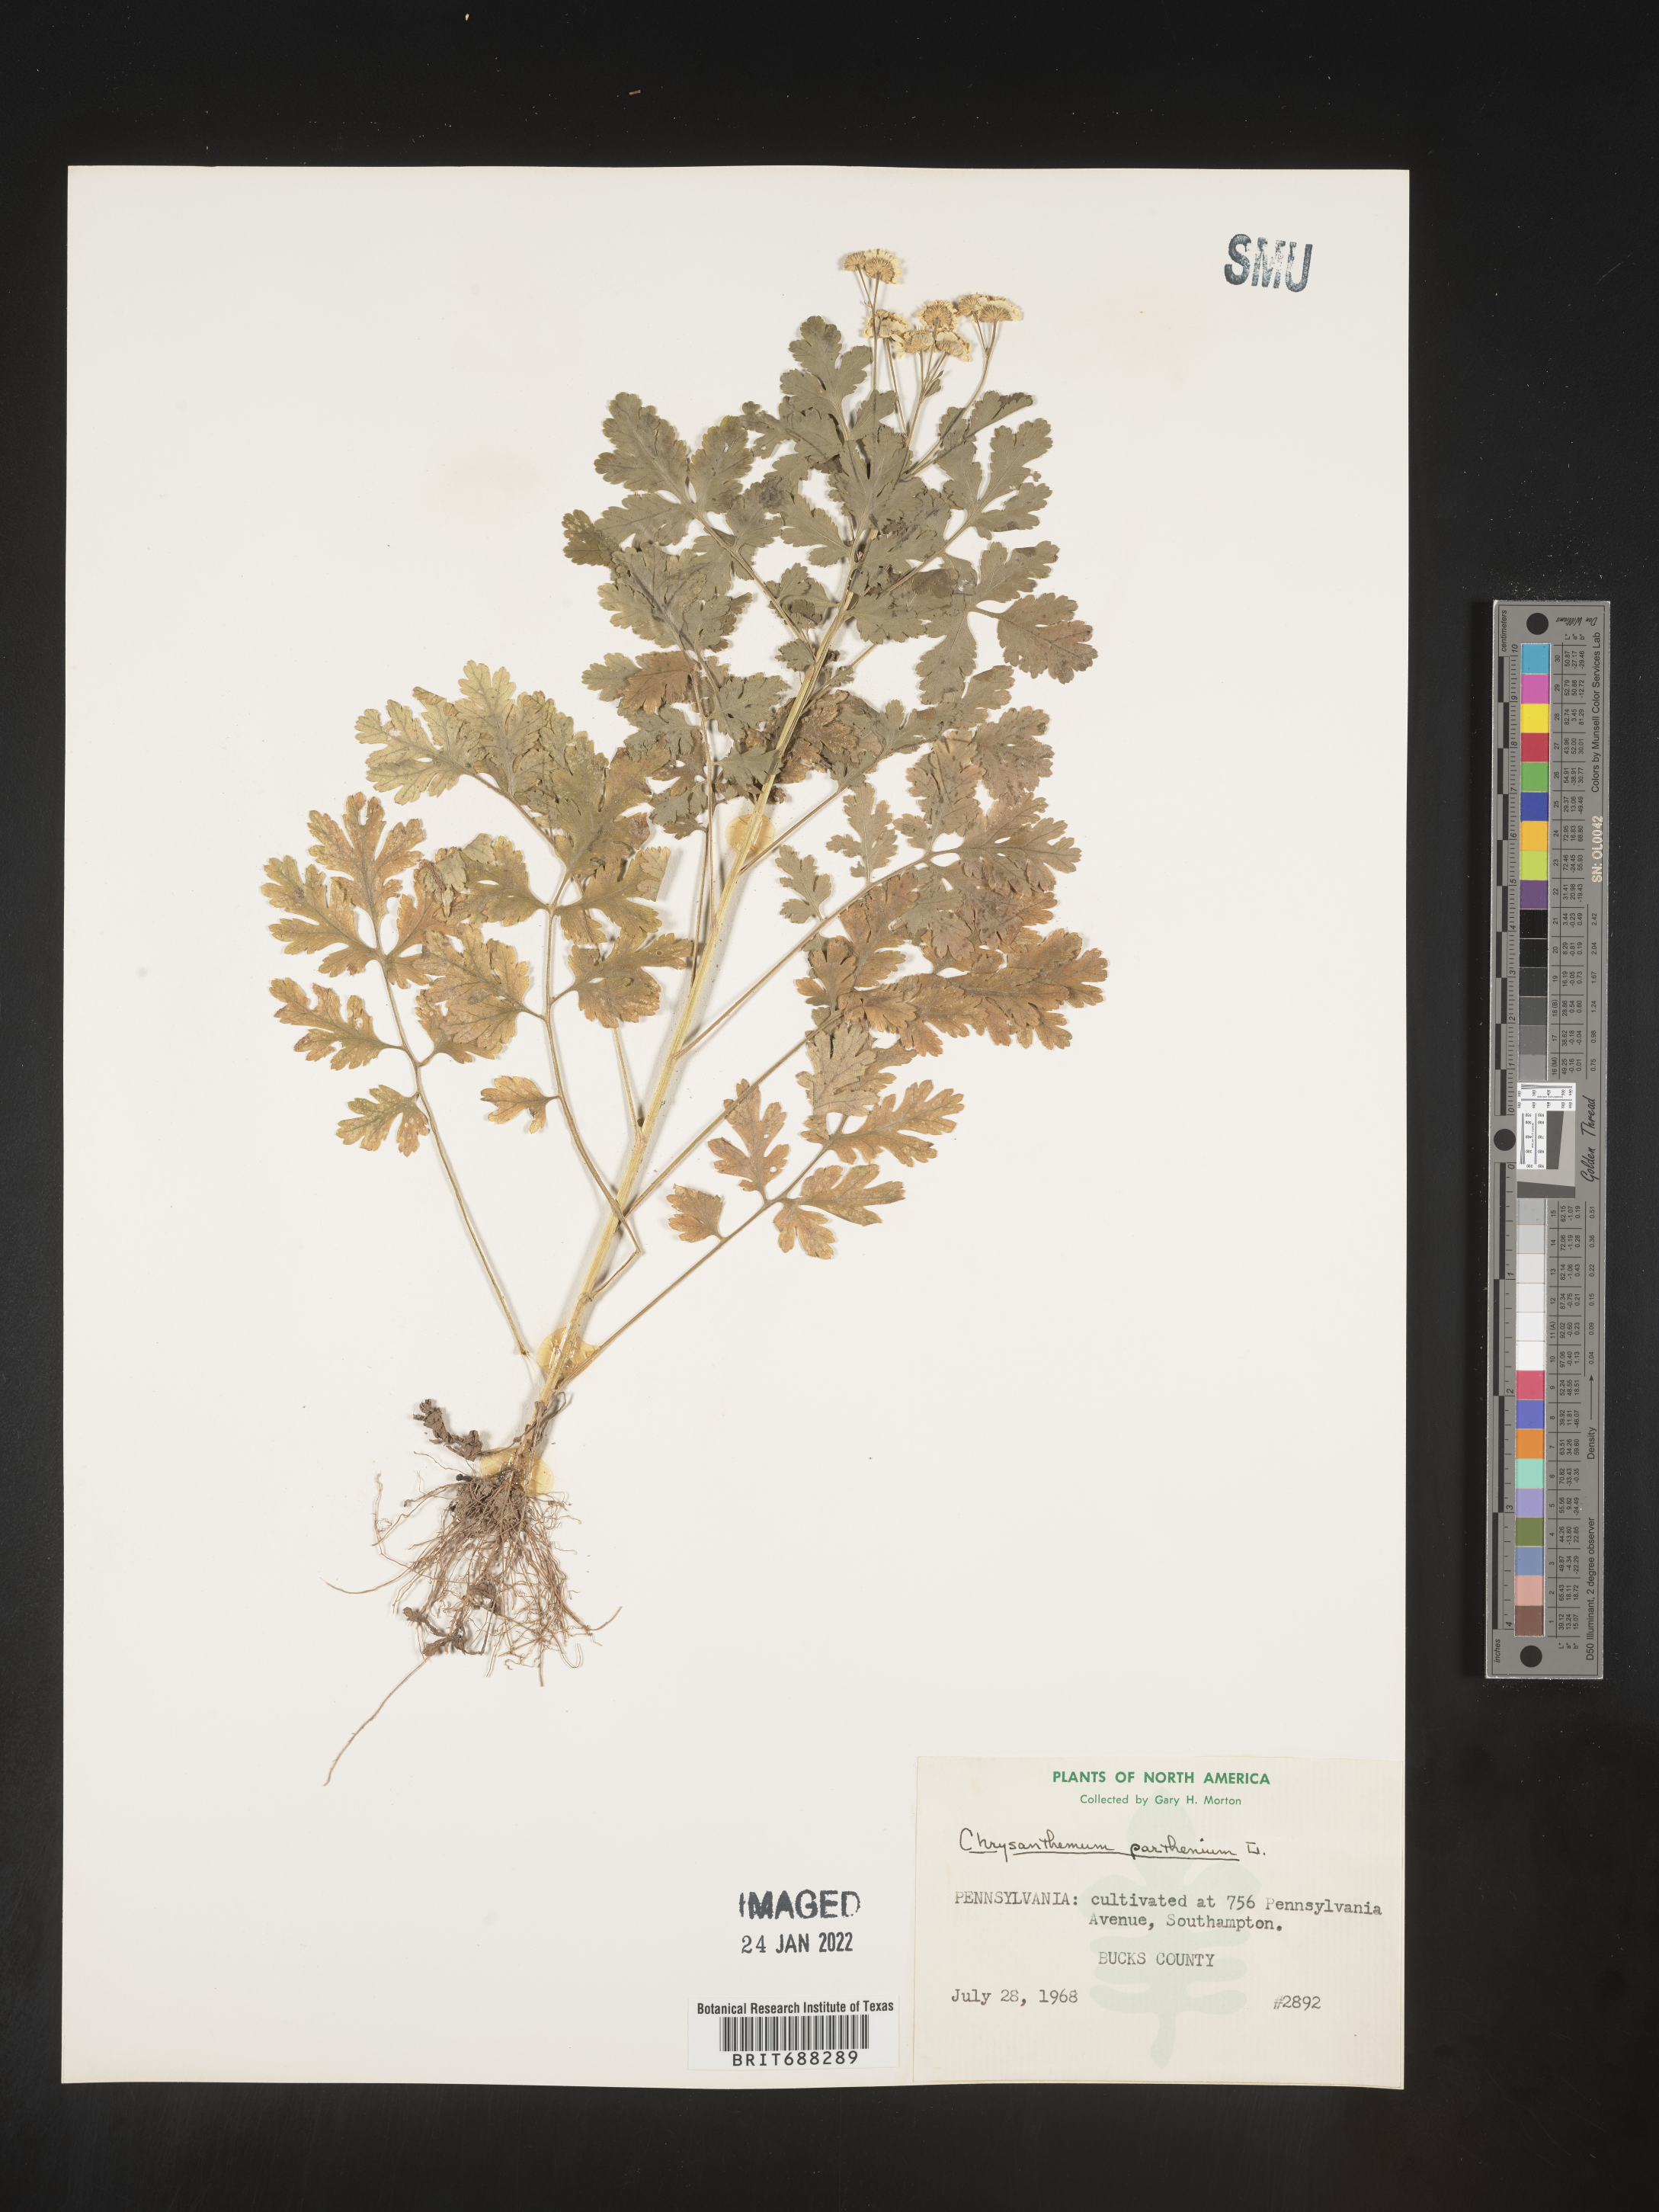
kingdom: Plantae
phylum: Tracheophyta
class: Magnoliopsida
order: Asterales
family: Asteraceae
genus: Chrysanthemum
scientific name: Chrysanthemum
